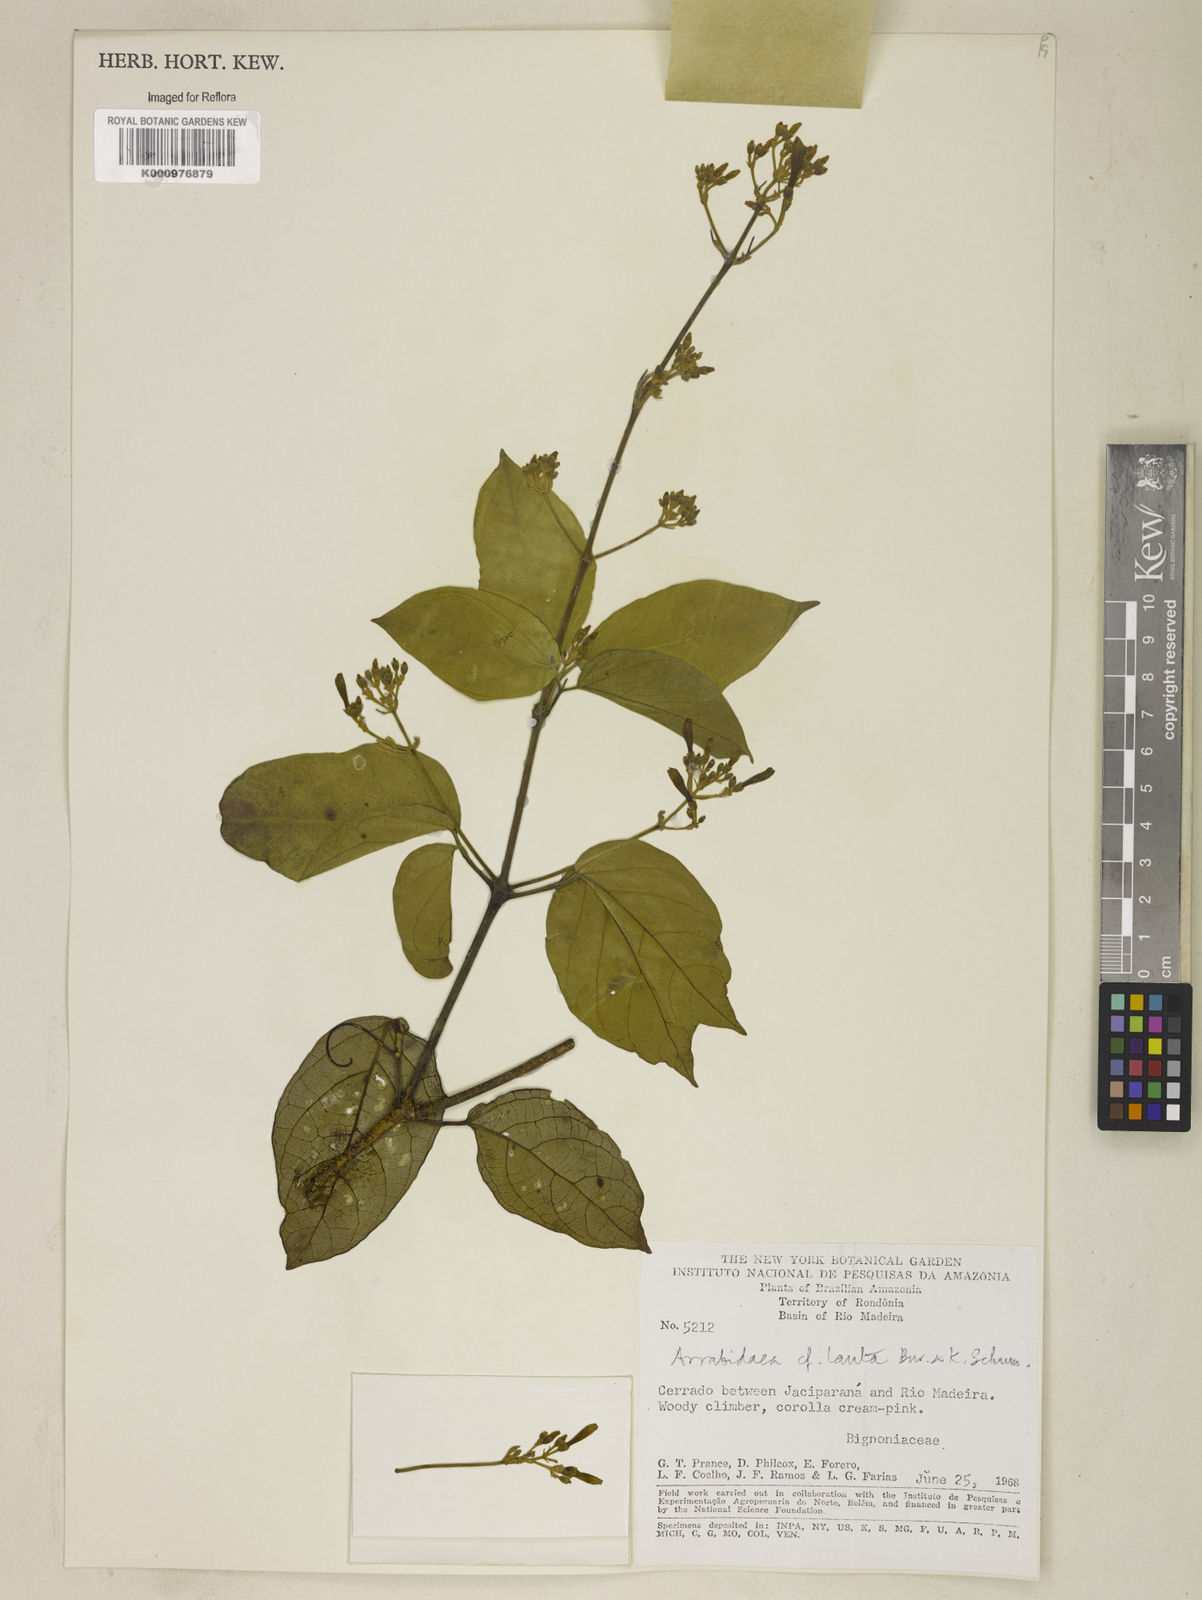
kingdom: Plantae
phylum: Tracheophyta
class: Magnoliopsida
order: Lamiales
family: Bignoniaceae
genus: Fridericia
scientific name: Fridericia lauta
